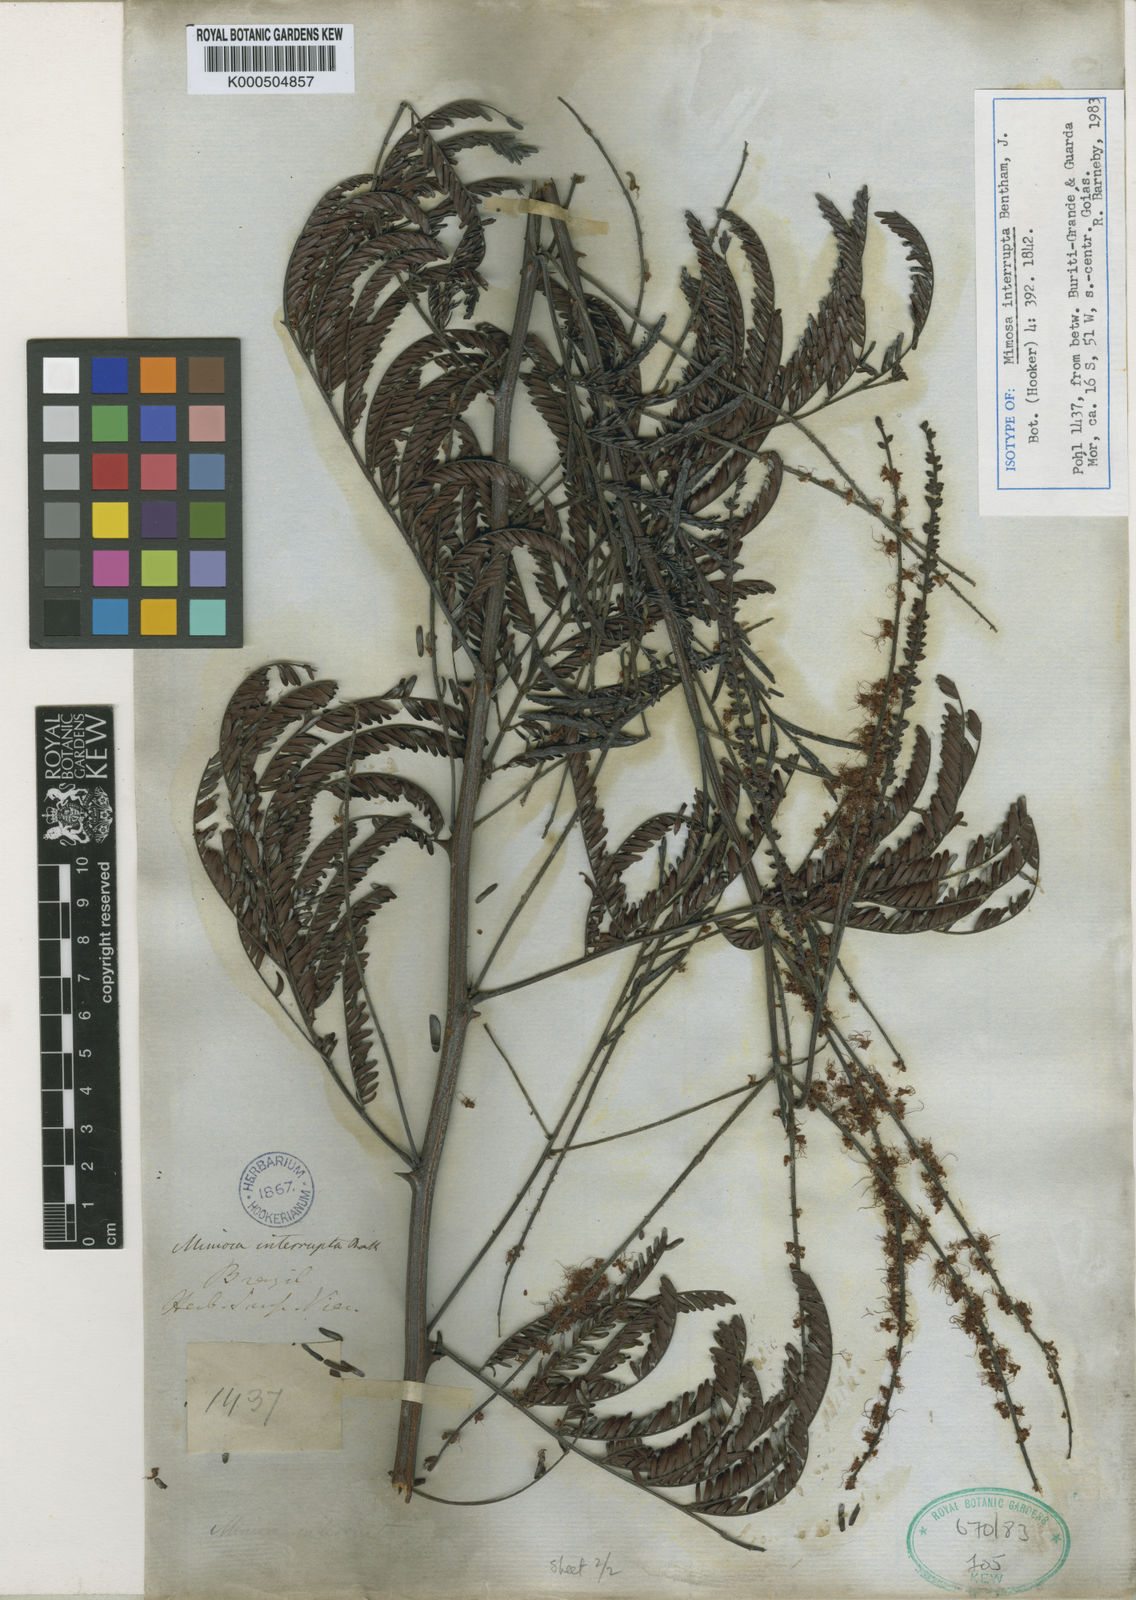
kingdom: Plantae
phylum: Tracheophyta
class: Magnoliopsida
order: Fabales
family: Fabaceae
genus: Mimosa
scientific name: Mimosa interrupta
